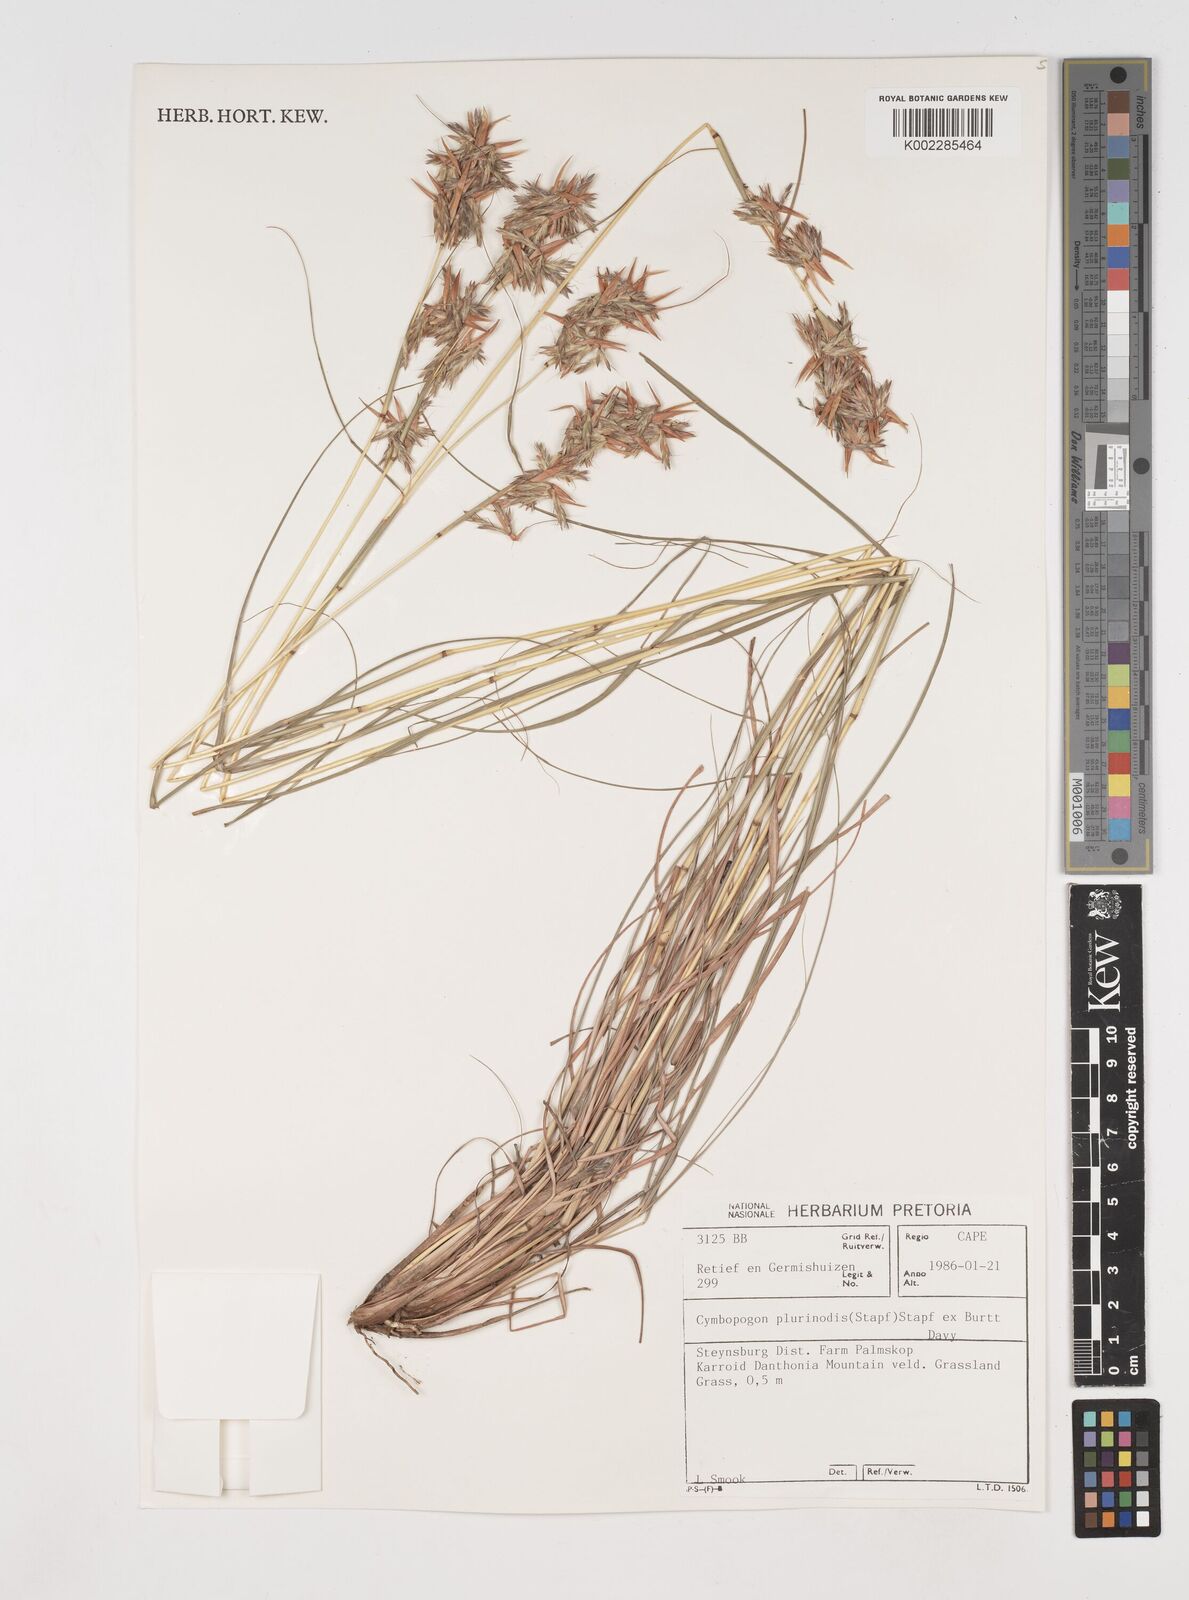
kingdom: Plantae
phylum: Tracheophyta
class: Liliopsida
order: Poales
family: Poaceae
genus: Cymbopogon
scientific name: Cymbopogon pospischilii
